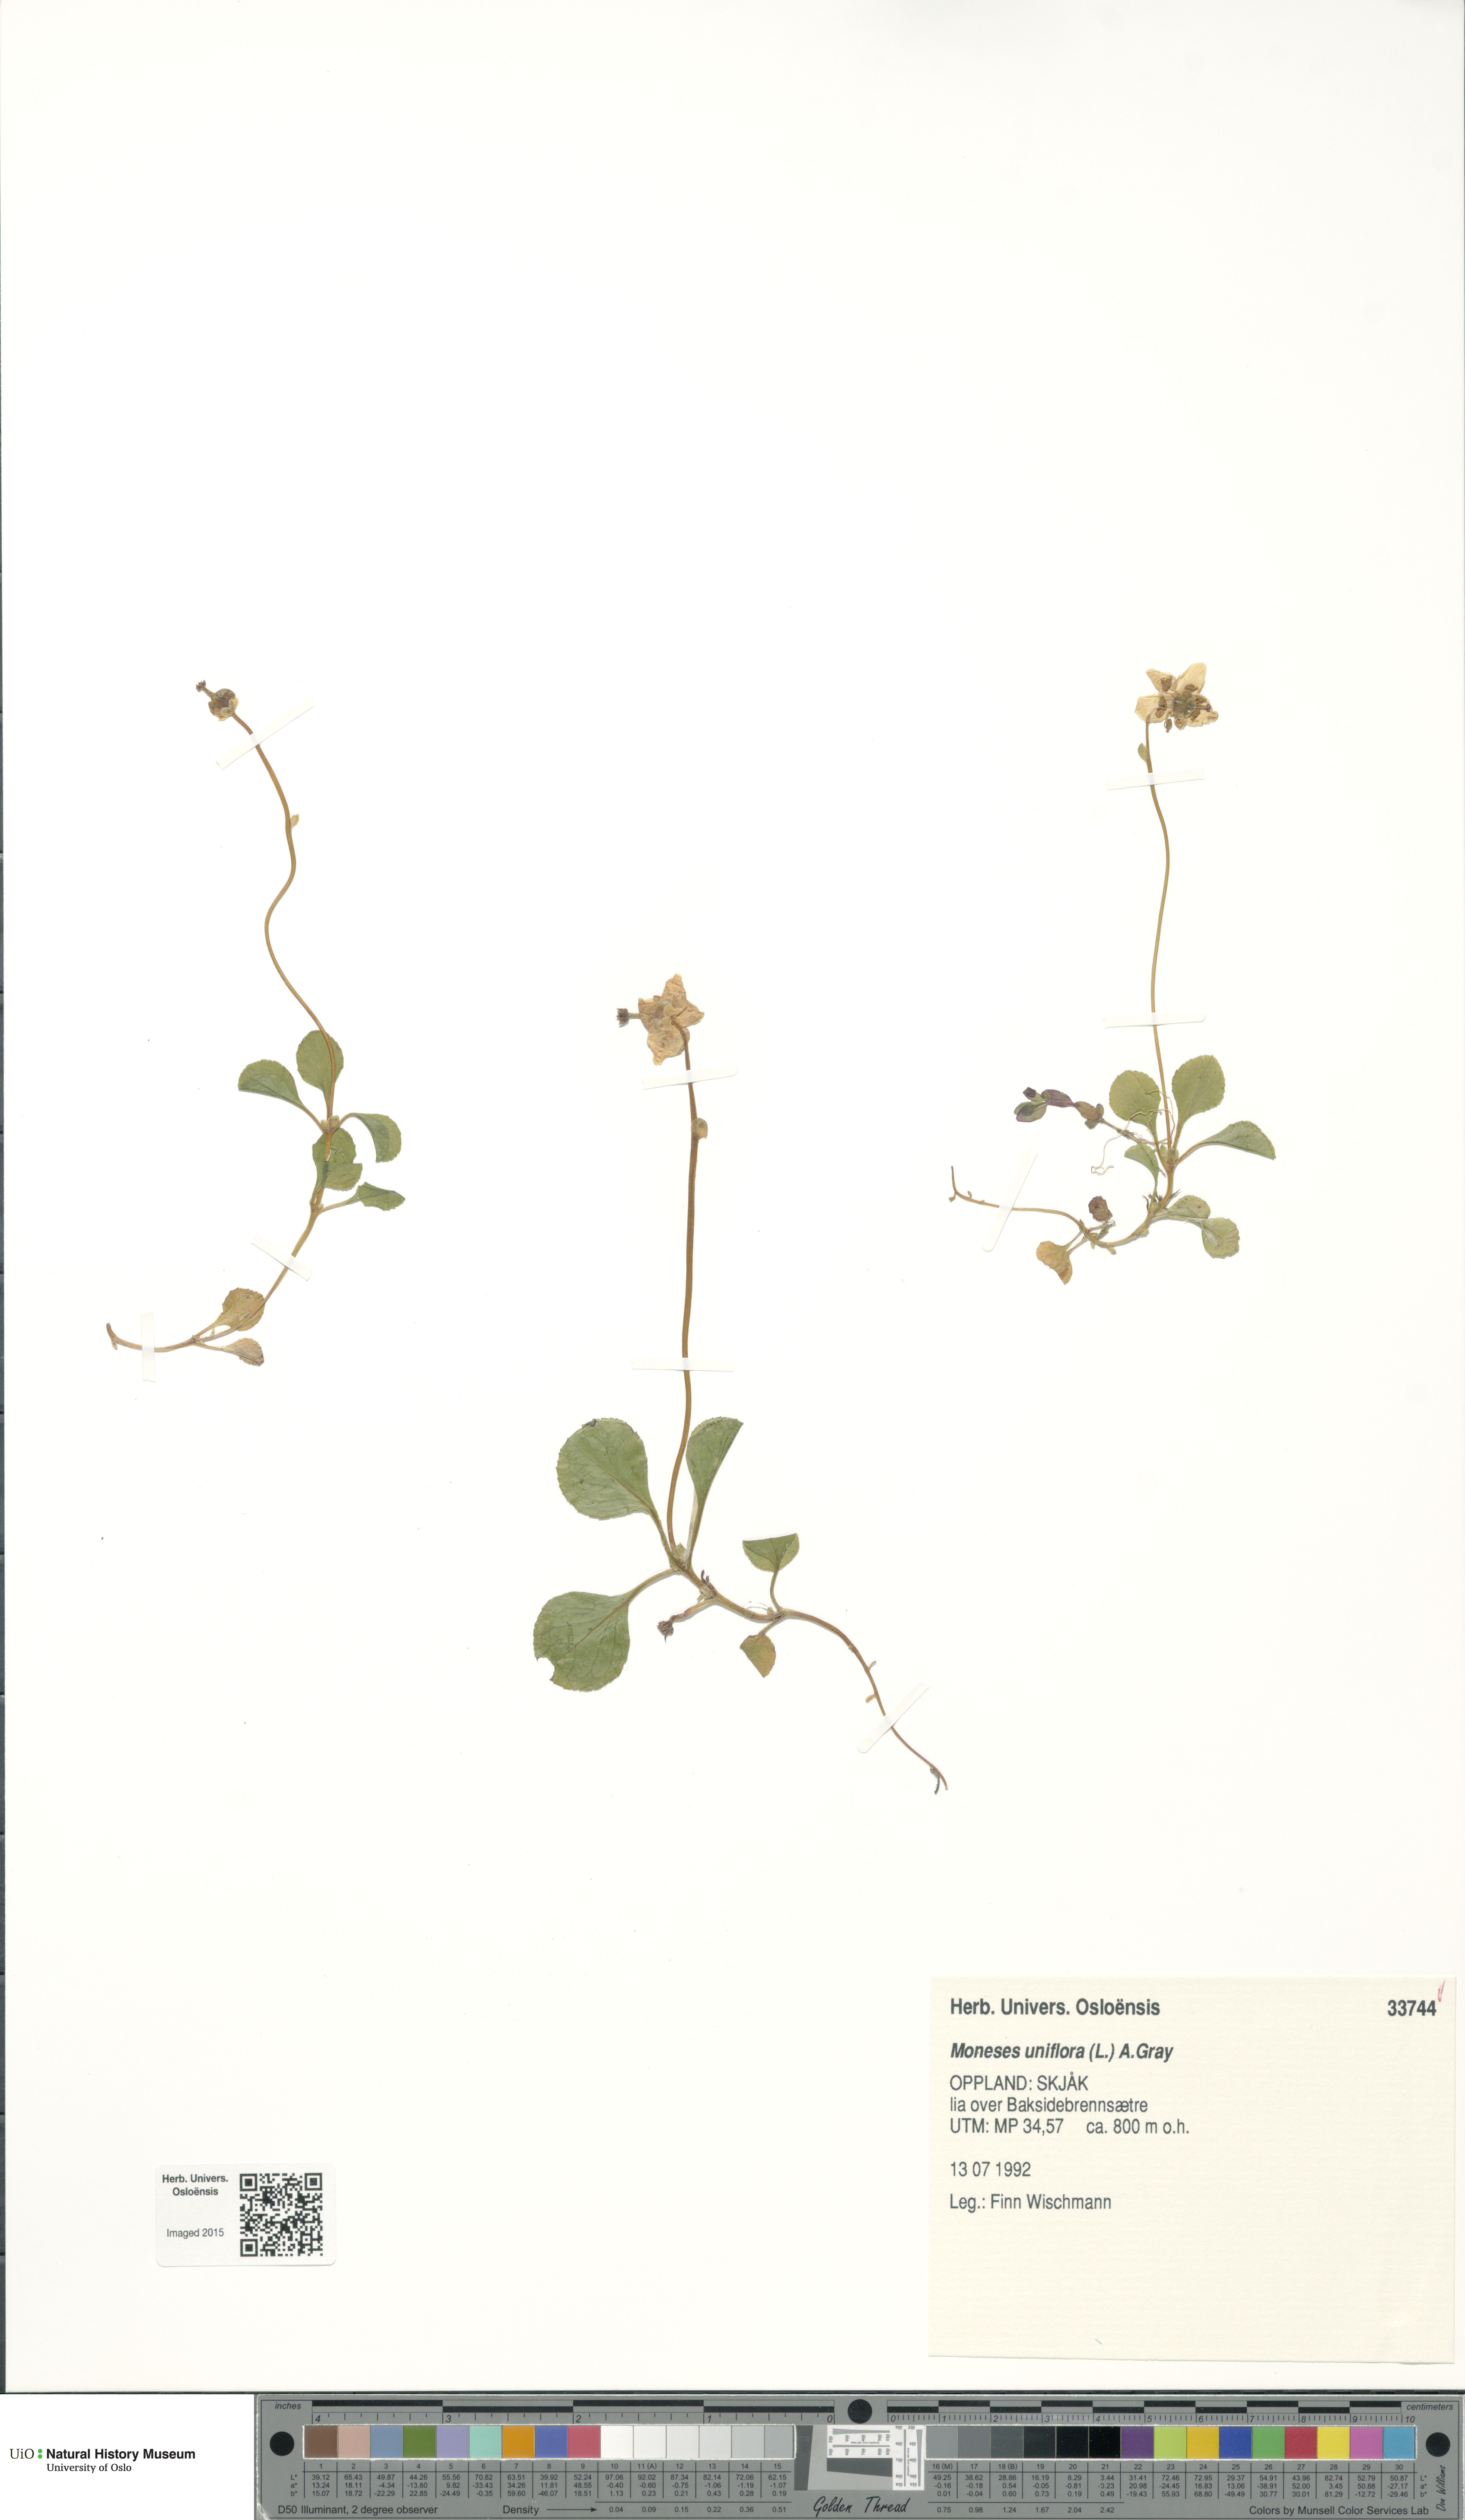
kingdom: Plantae
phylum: Tracheophyta
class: Magnoliopsida
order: Ericales
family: Ericaceae
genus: Moneses
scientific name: Moneses uniflora
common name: One-flowered wintergreen
